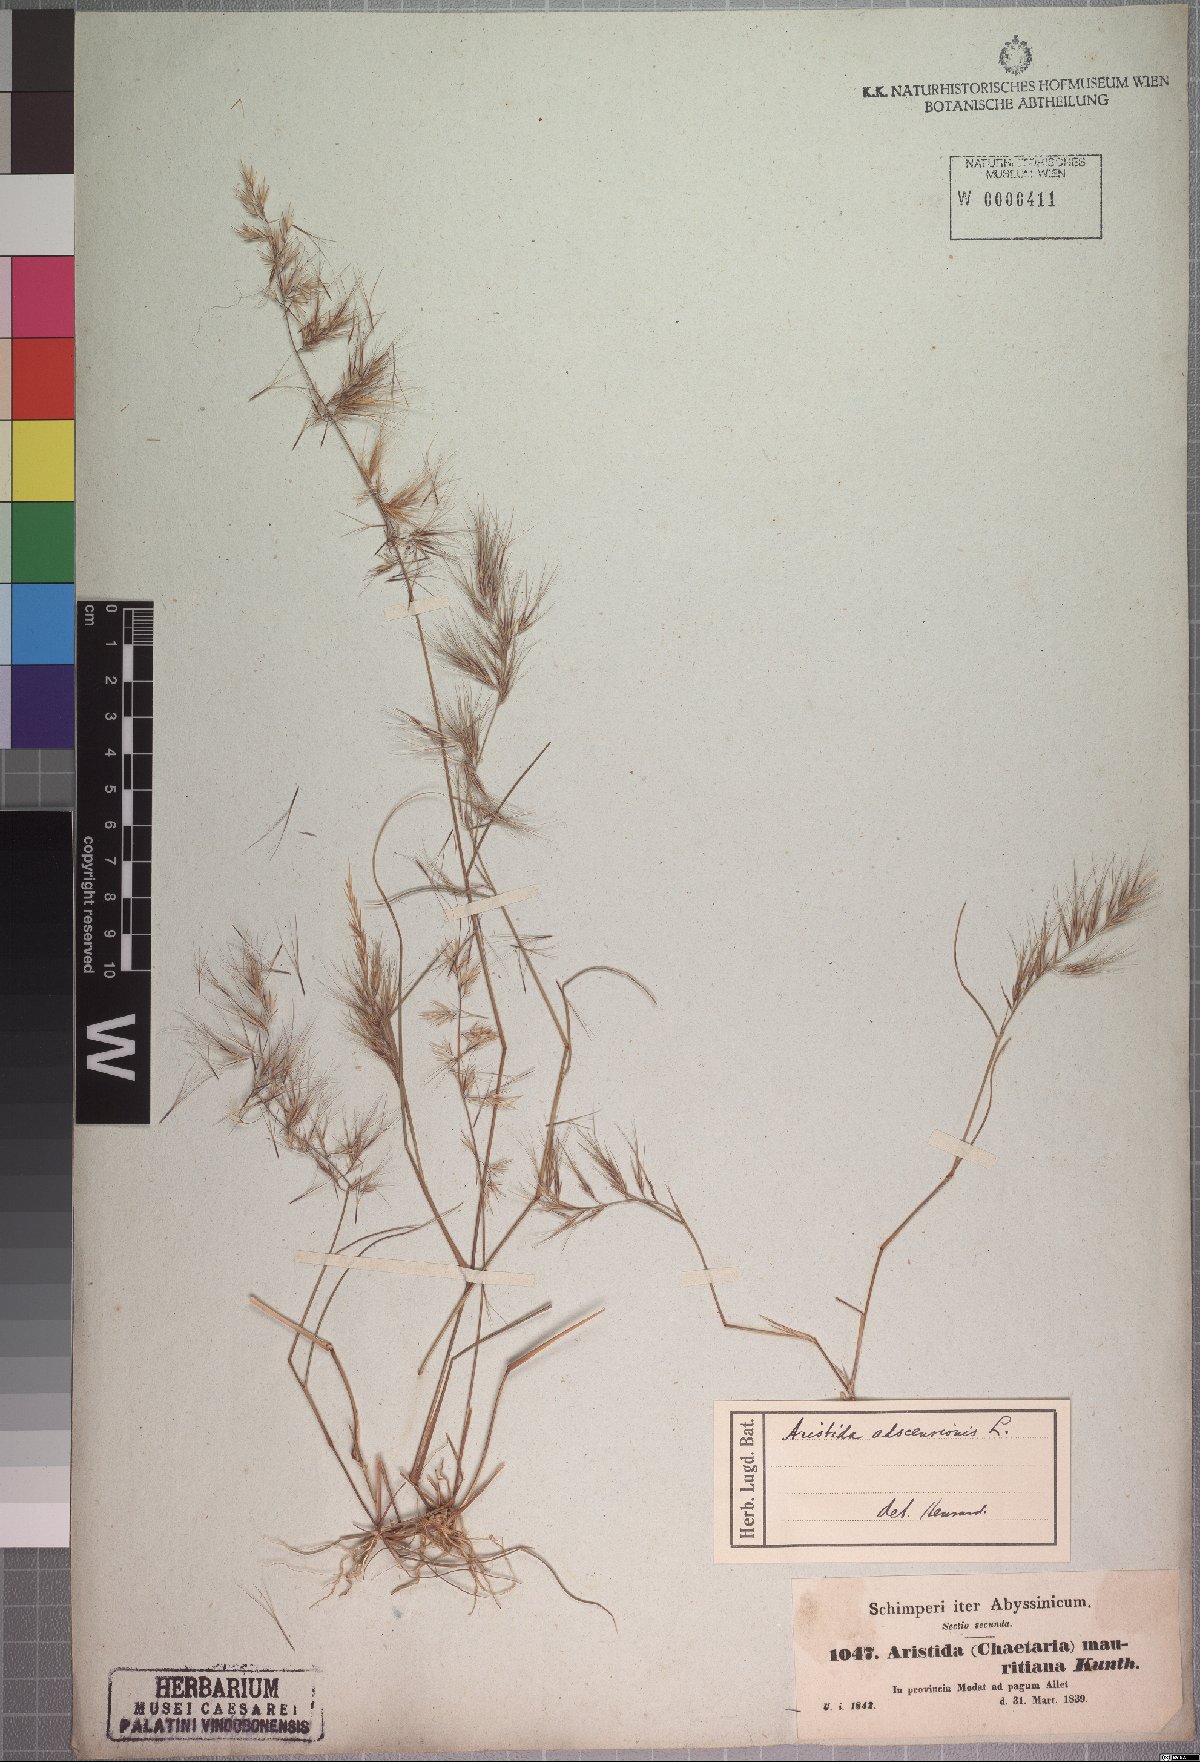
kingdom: Plantae
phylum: Tracheophyta
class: Liliopsida
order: Poales
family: Poaceae
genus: Aristida
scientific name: Aristida adscensionis
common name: Sixweeks threeawn
